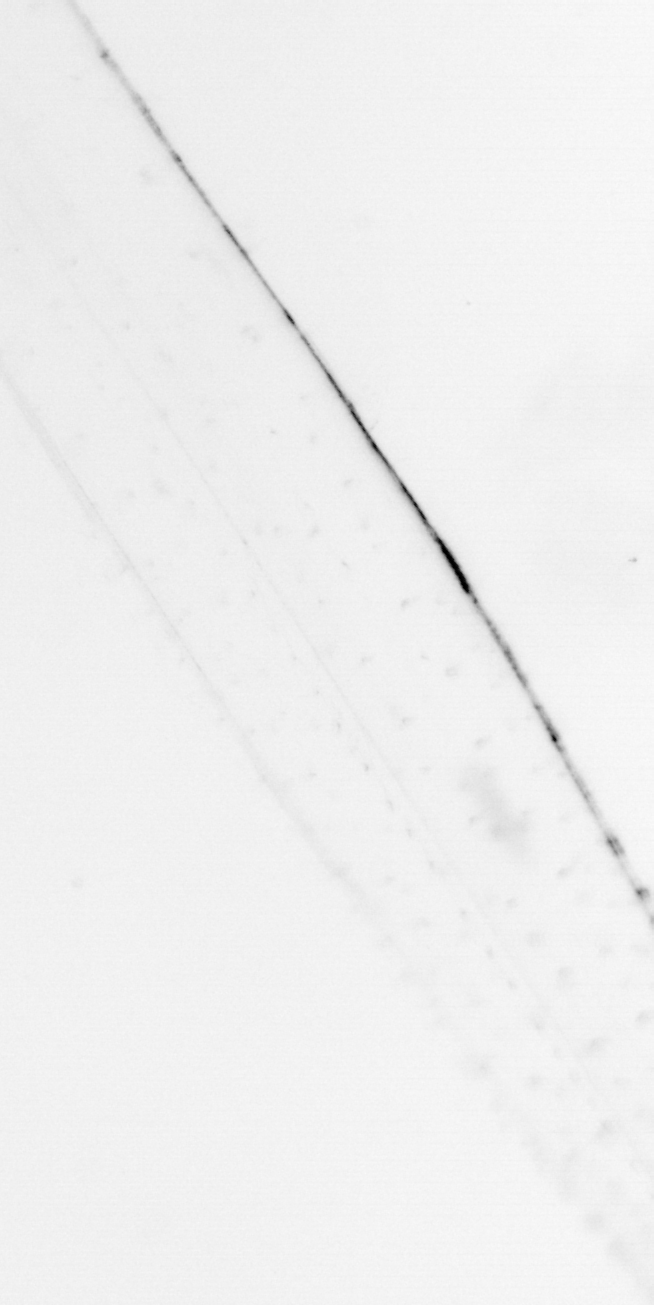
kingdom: Chromista
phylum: Ochrophyta
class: Bacillariophyceae
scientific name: Bacillariophyceae
